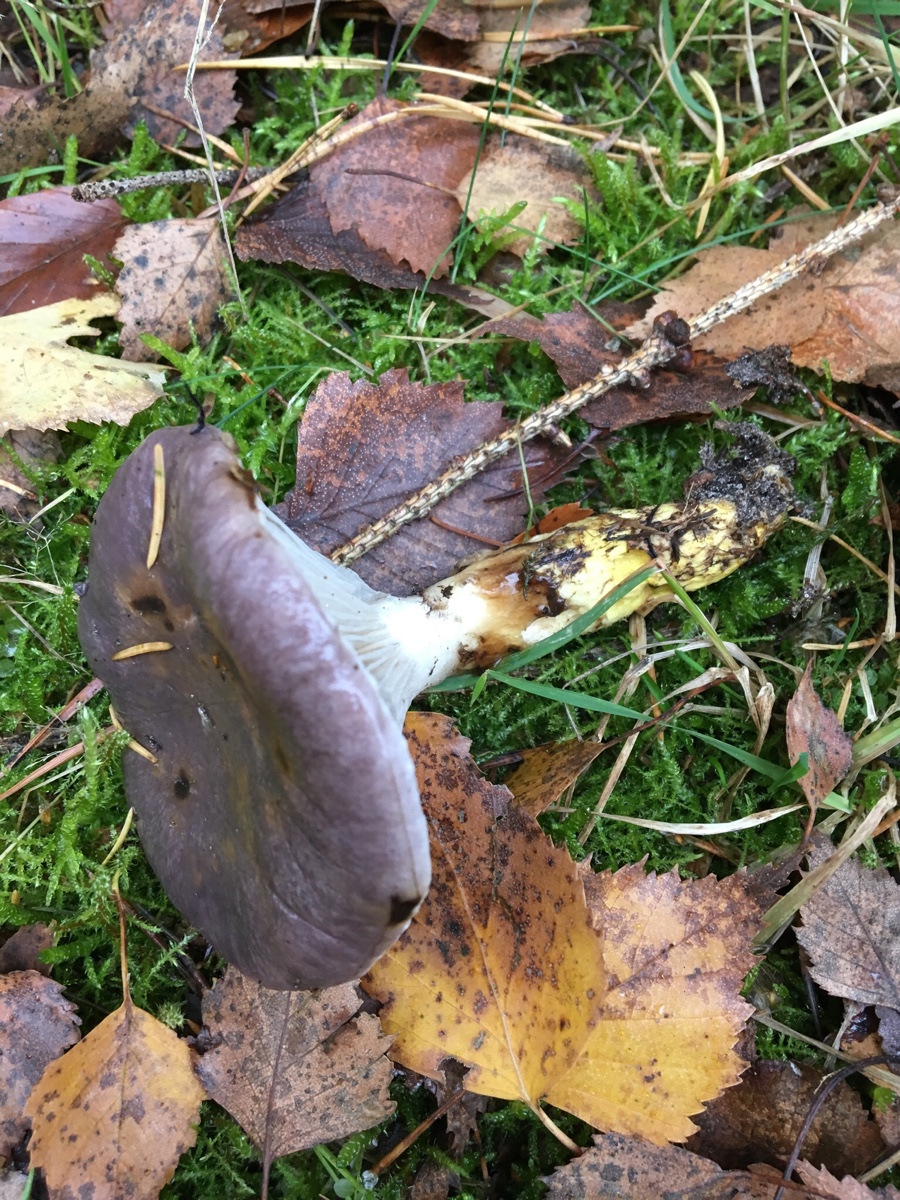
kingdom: Fungi
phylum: Basidiomycota
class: Agaricomycetes
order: Boletales
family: Gomphidiaceae
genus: Gomphidius
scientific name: Gomphidius glutinosus
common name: grå slimslør
